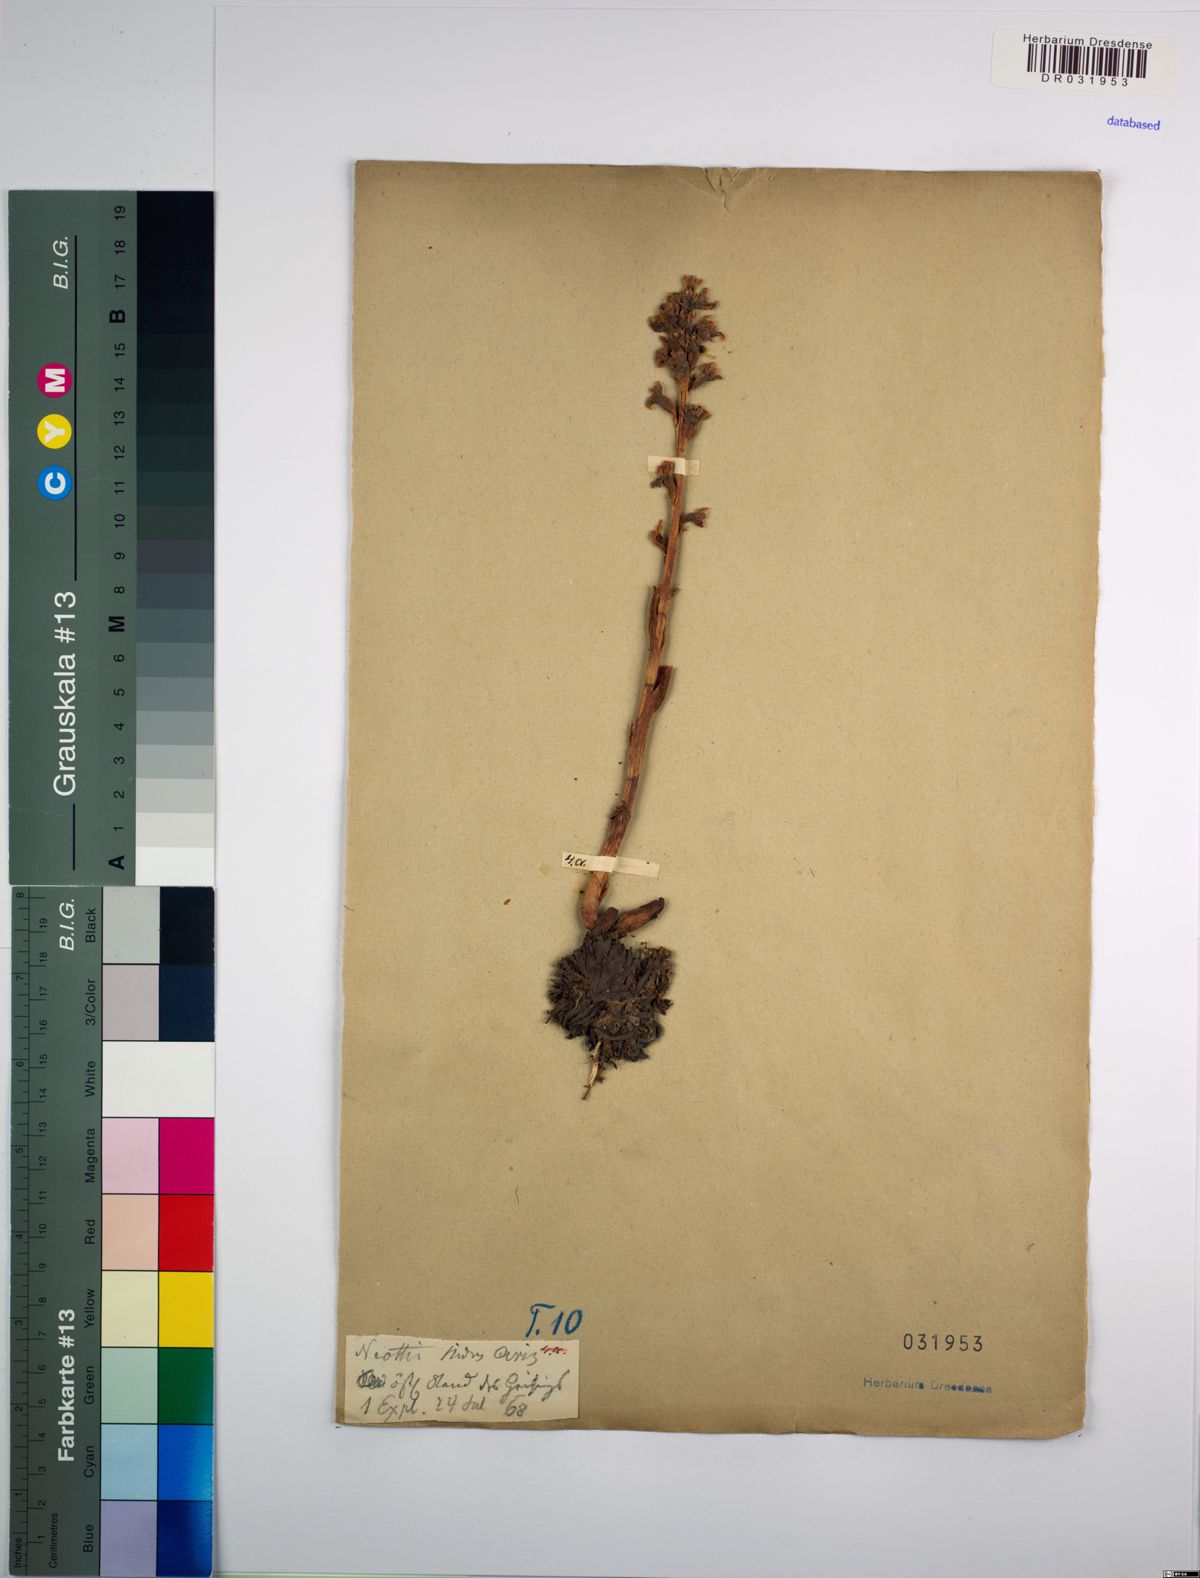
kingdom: Plantae
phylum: Tracheophyta
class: Liliopsida
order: Asparagales
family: Orchidaceae
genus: Neottia
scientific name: Neottia nidus-avis
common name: Bird's-nest orchid
